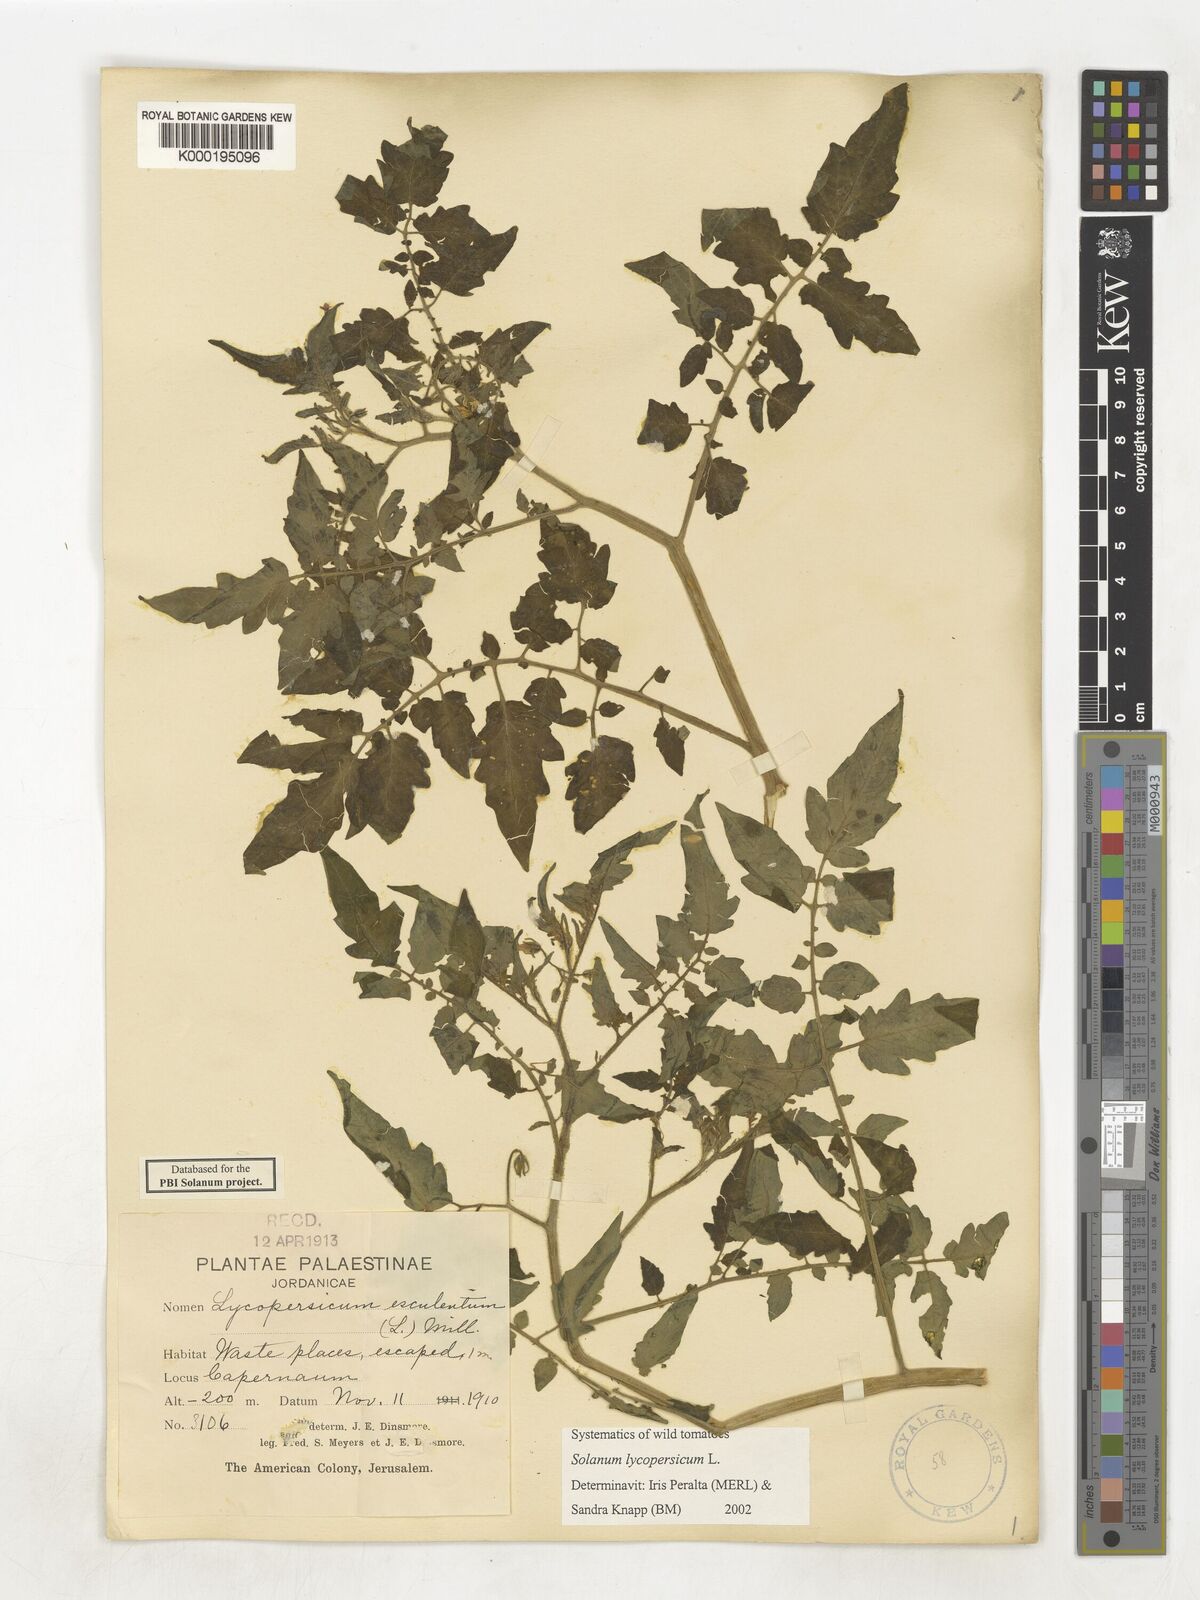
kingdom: Plantae
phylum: Tracheophyta
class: Magnoliopsida
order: Solanales
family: Solanaceae
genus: Solanum
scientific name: Solanum lycopersicum
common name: Garden tomato
